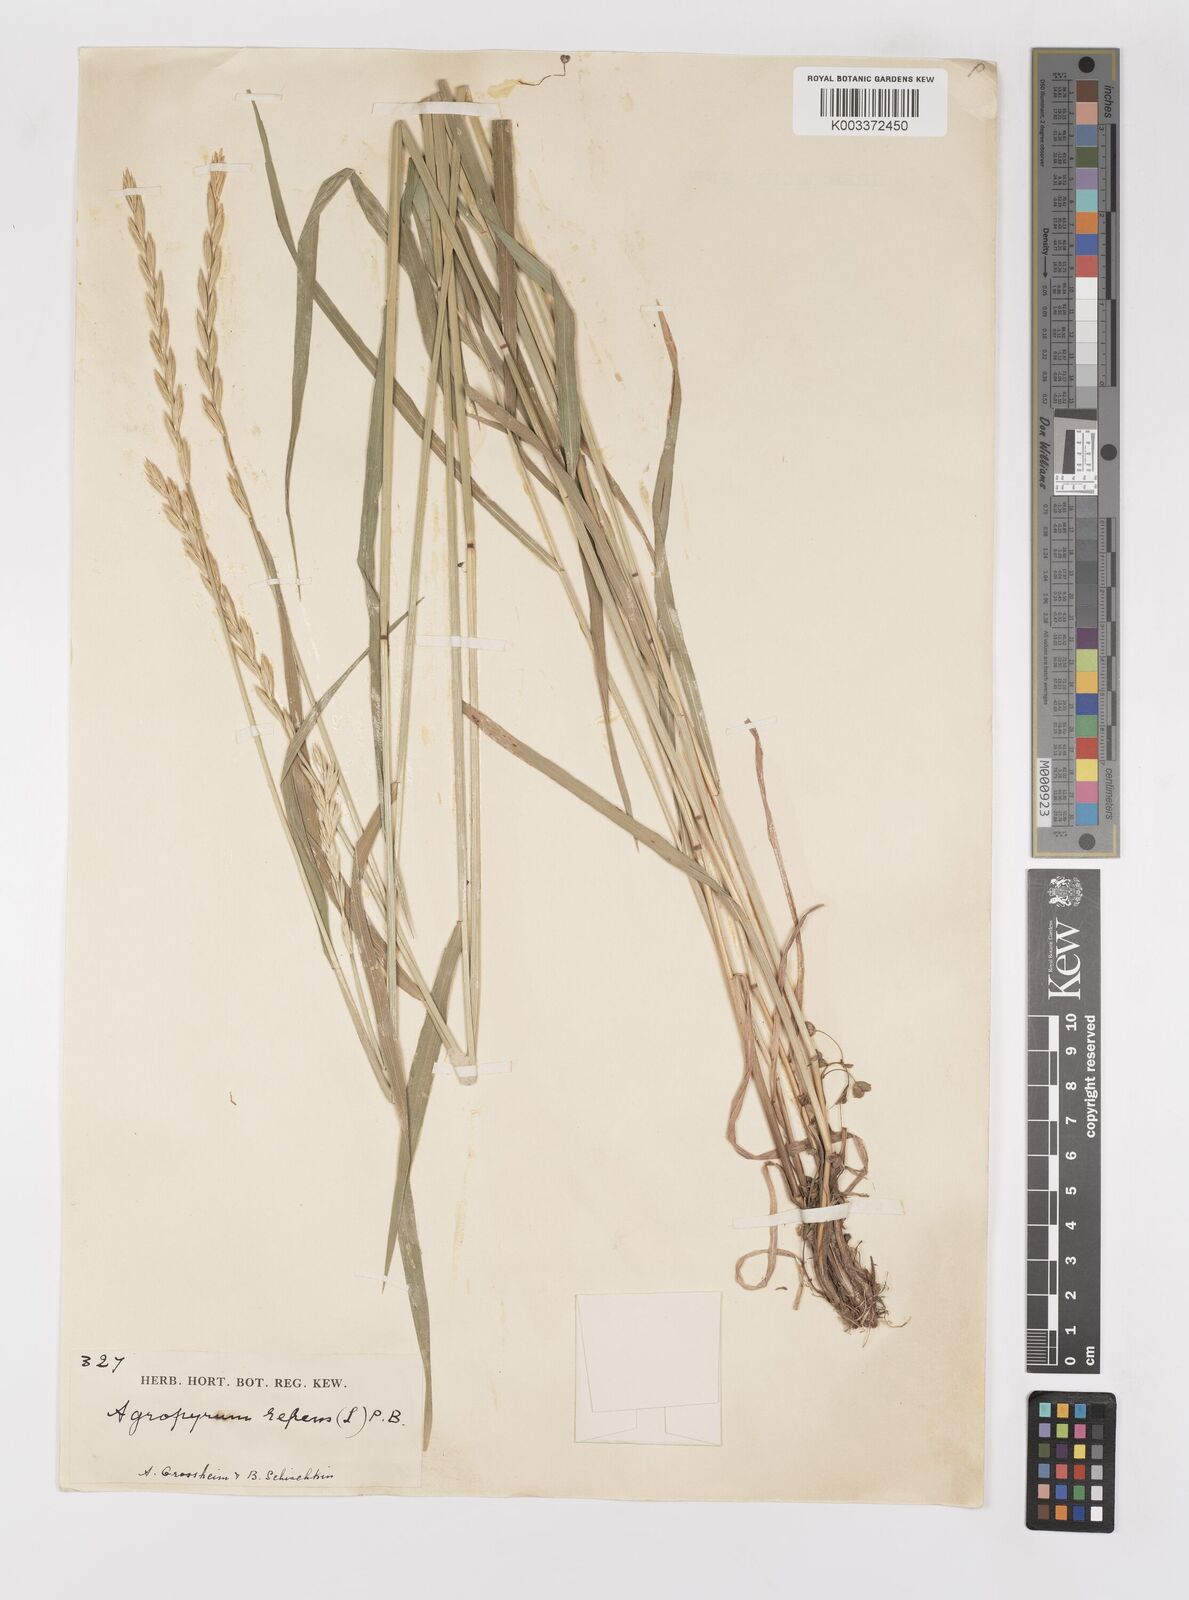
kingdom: Plantae
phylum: Tracheophyta
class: Liliopsida
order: Poales
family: Poaceae
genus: Elymus
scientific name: Elymus repens
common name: Quackgrass
